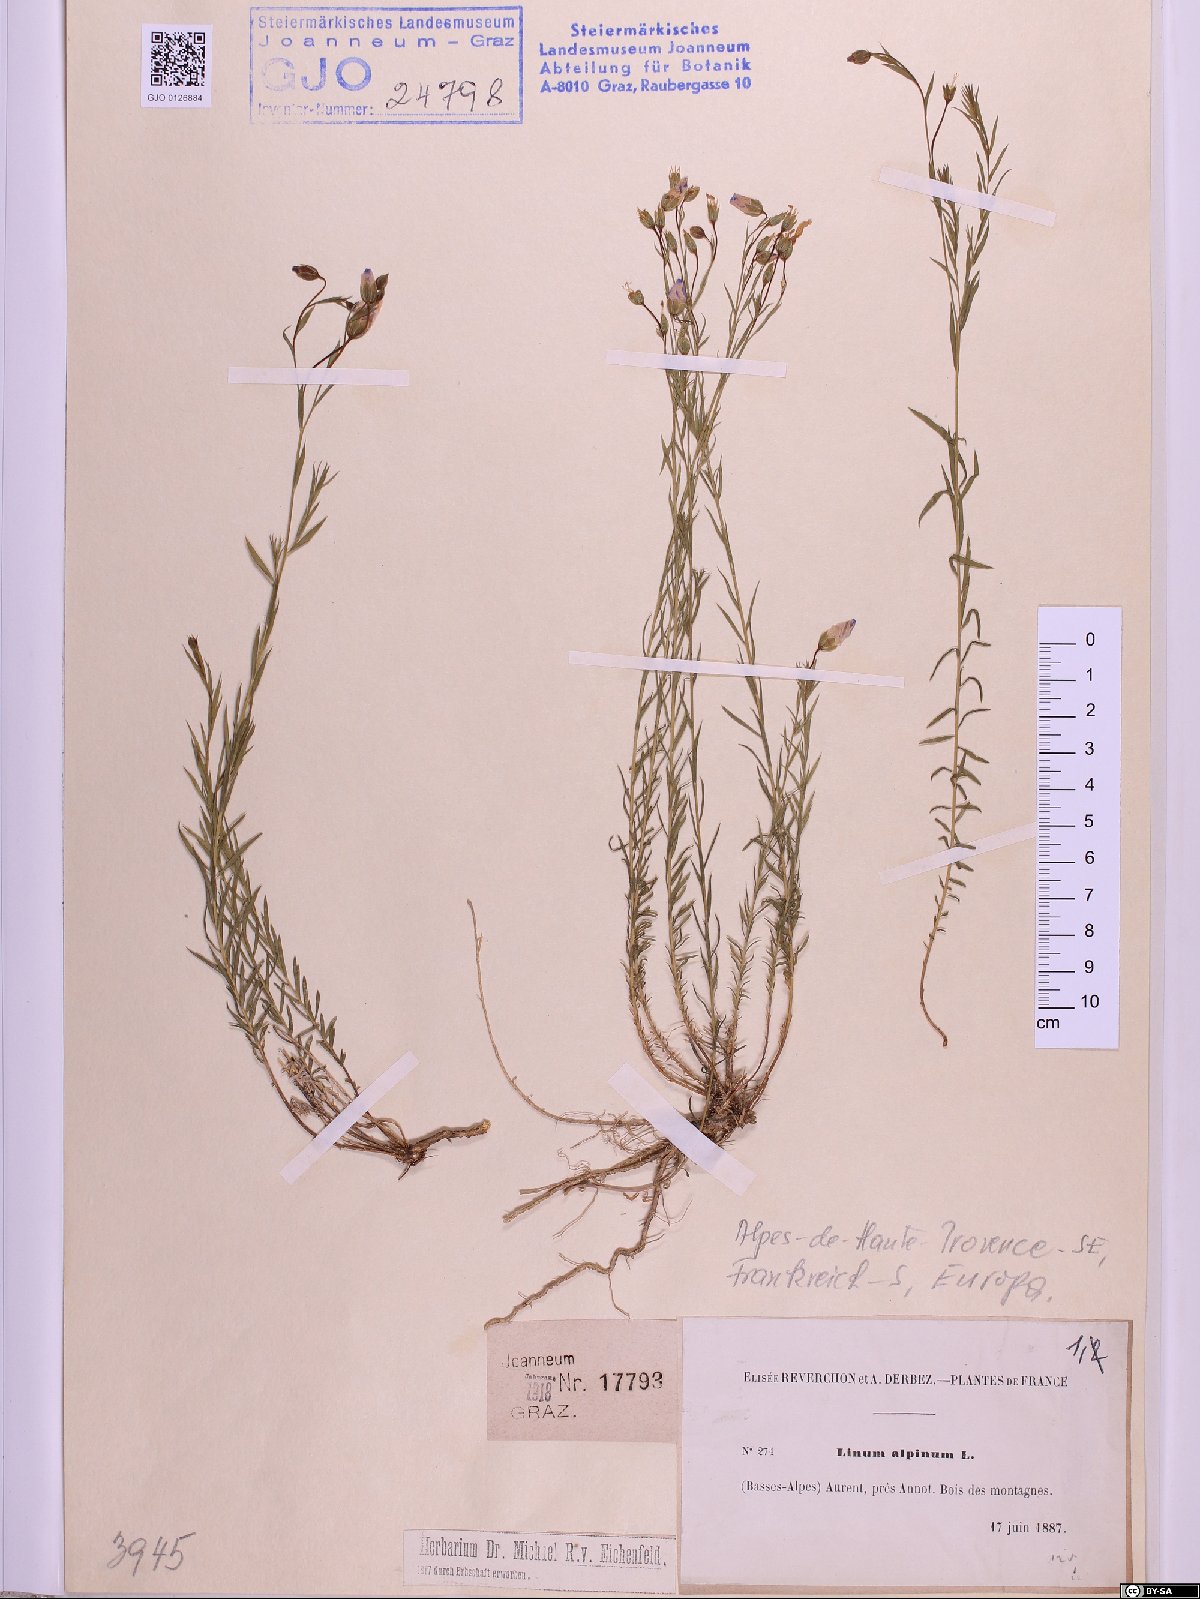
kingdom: Plantae
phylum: Tracheophyta
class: Magnoliopsida
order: Malpighiales
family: Linaceae
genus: Linum
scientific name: Linum alpinum
